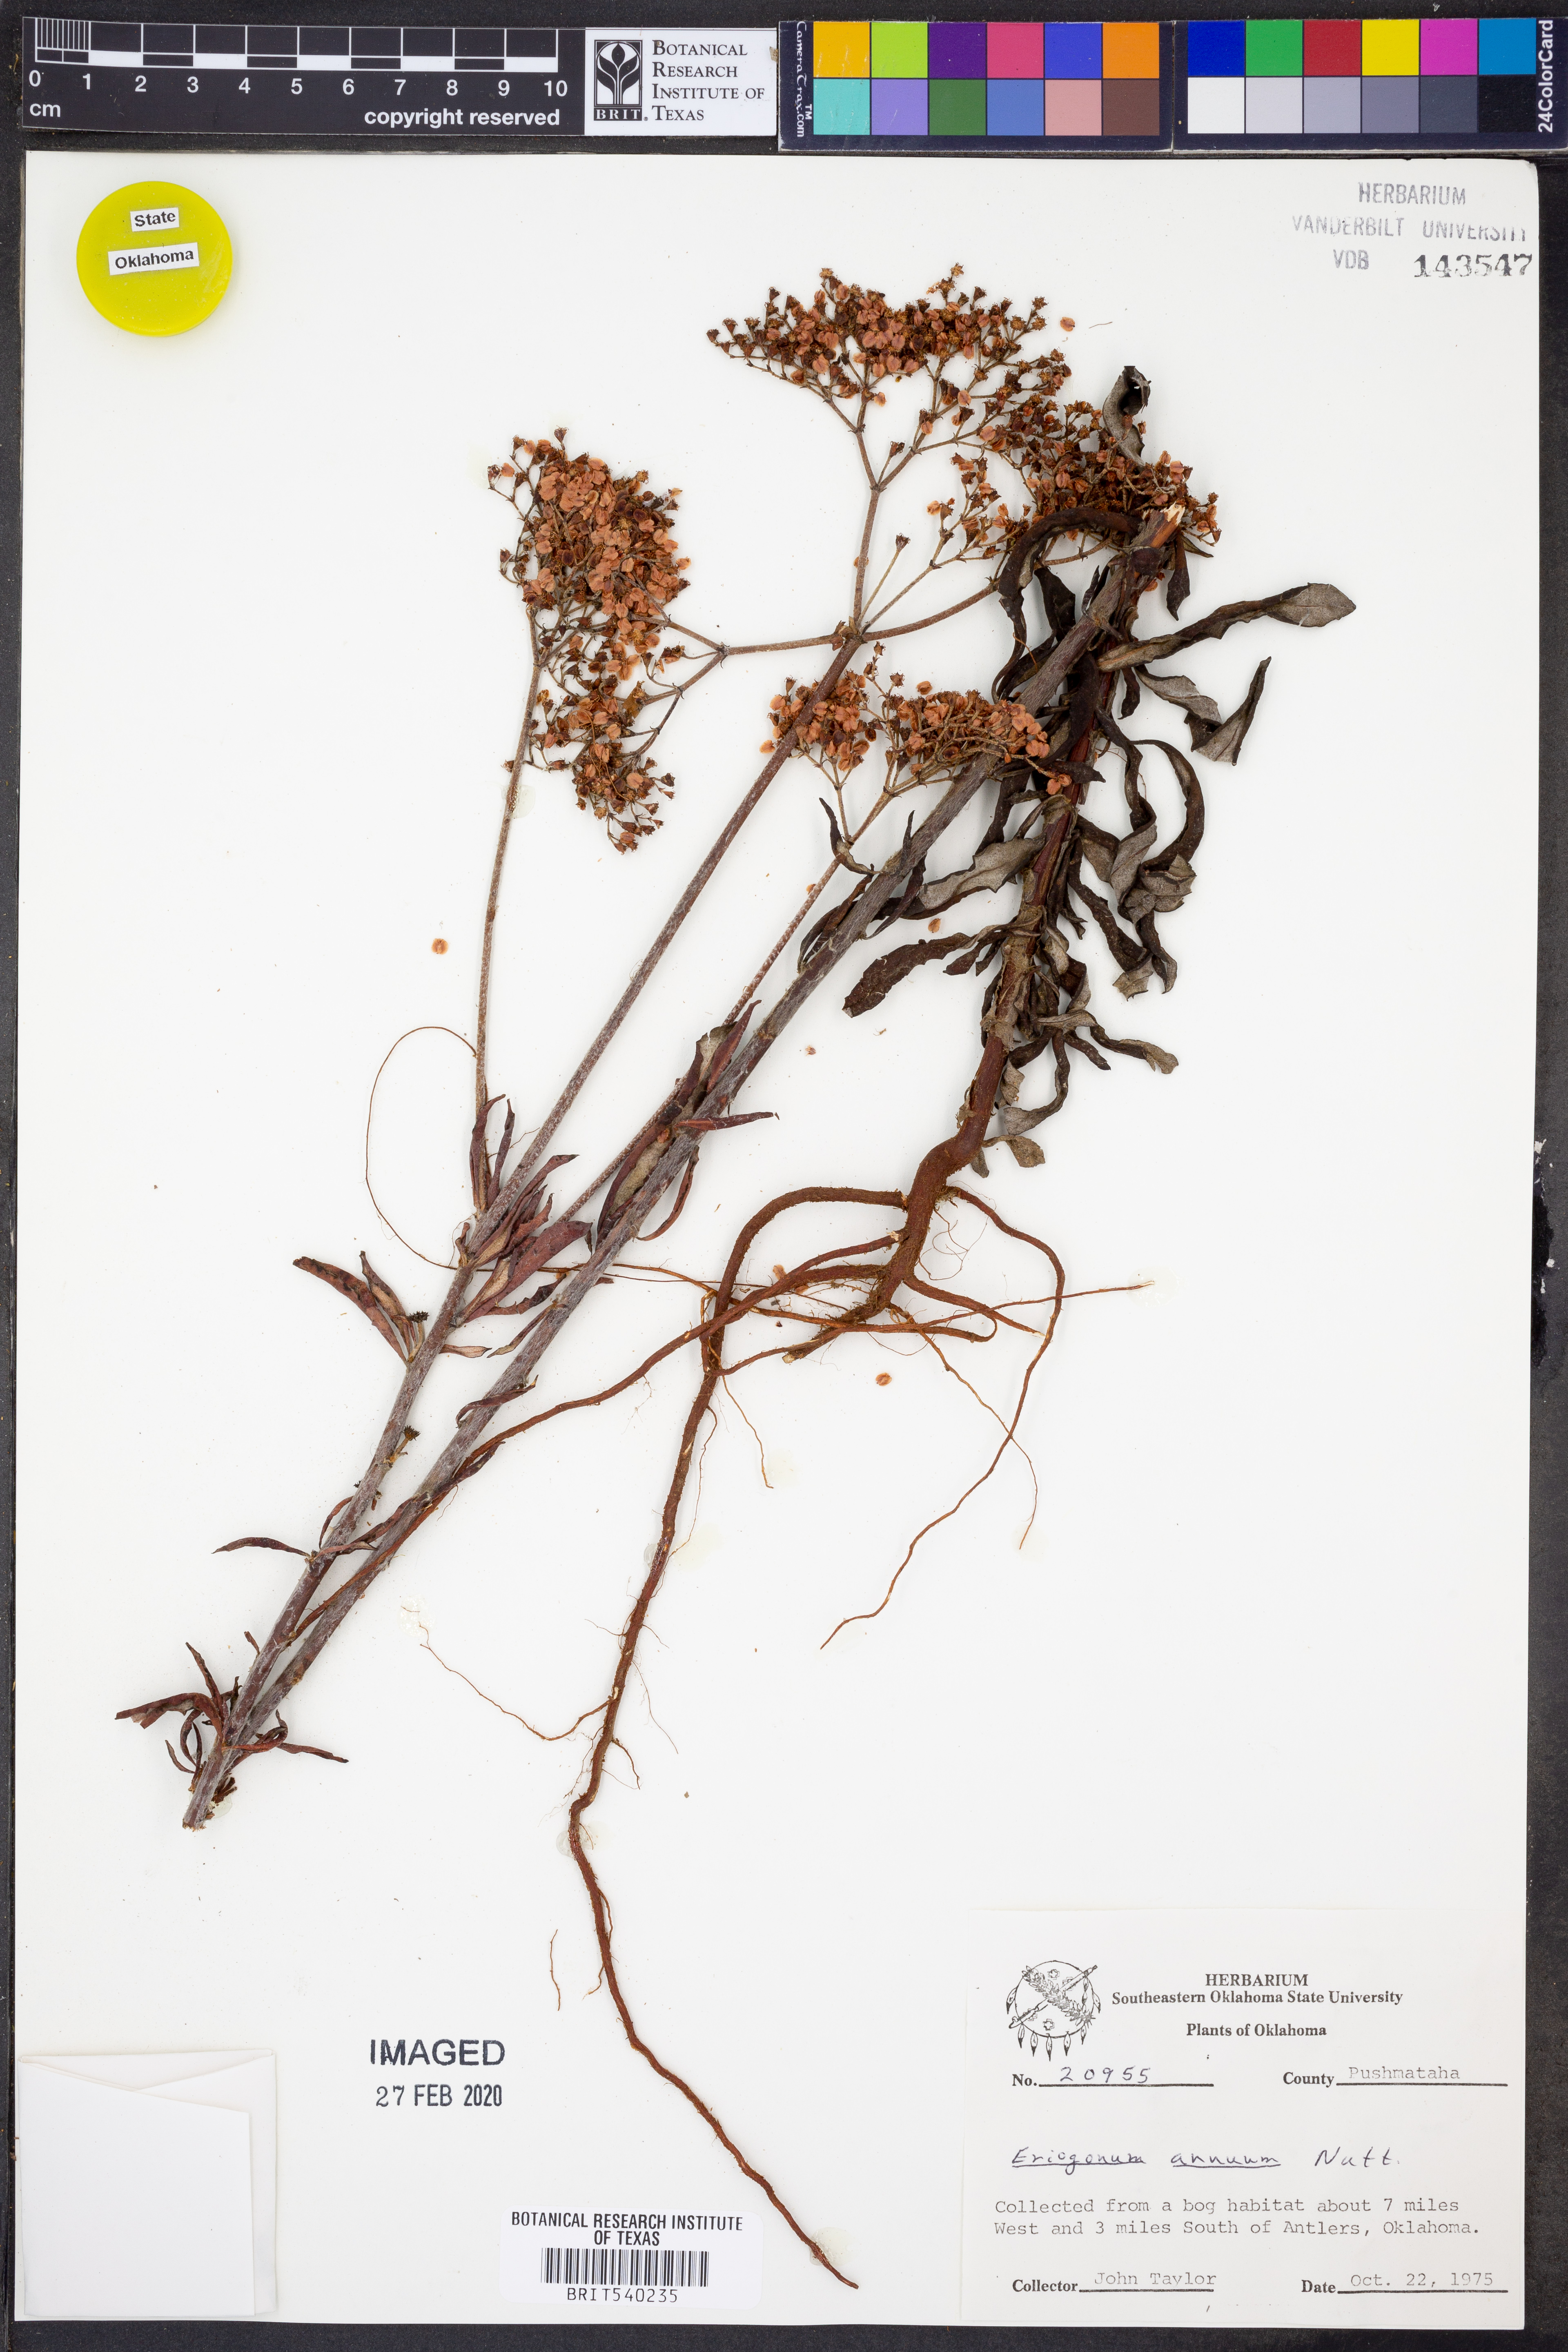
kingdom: Plantae
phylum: Tracheophyta
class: Magnoliopsida
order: Caryophyllales
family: Polygonaceae
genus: Eriogonum
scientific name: Eriogonum annuum
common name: Annual wild buckwheat
